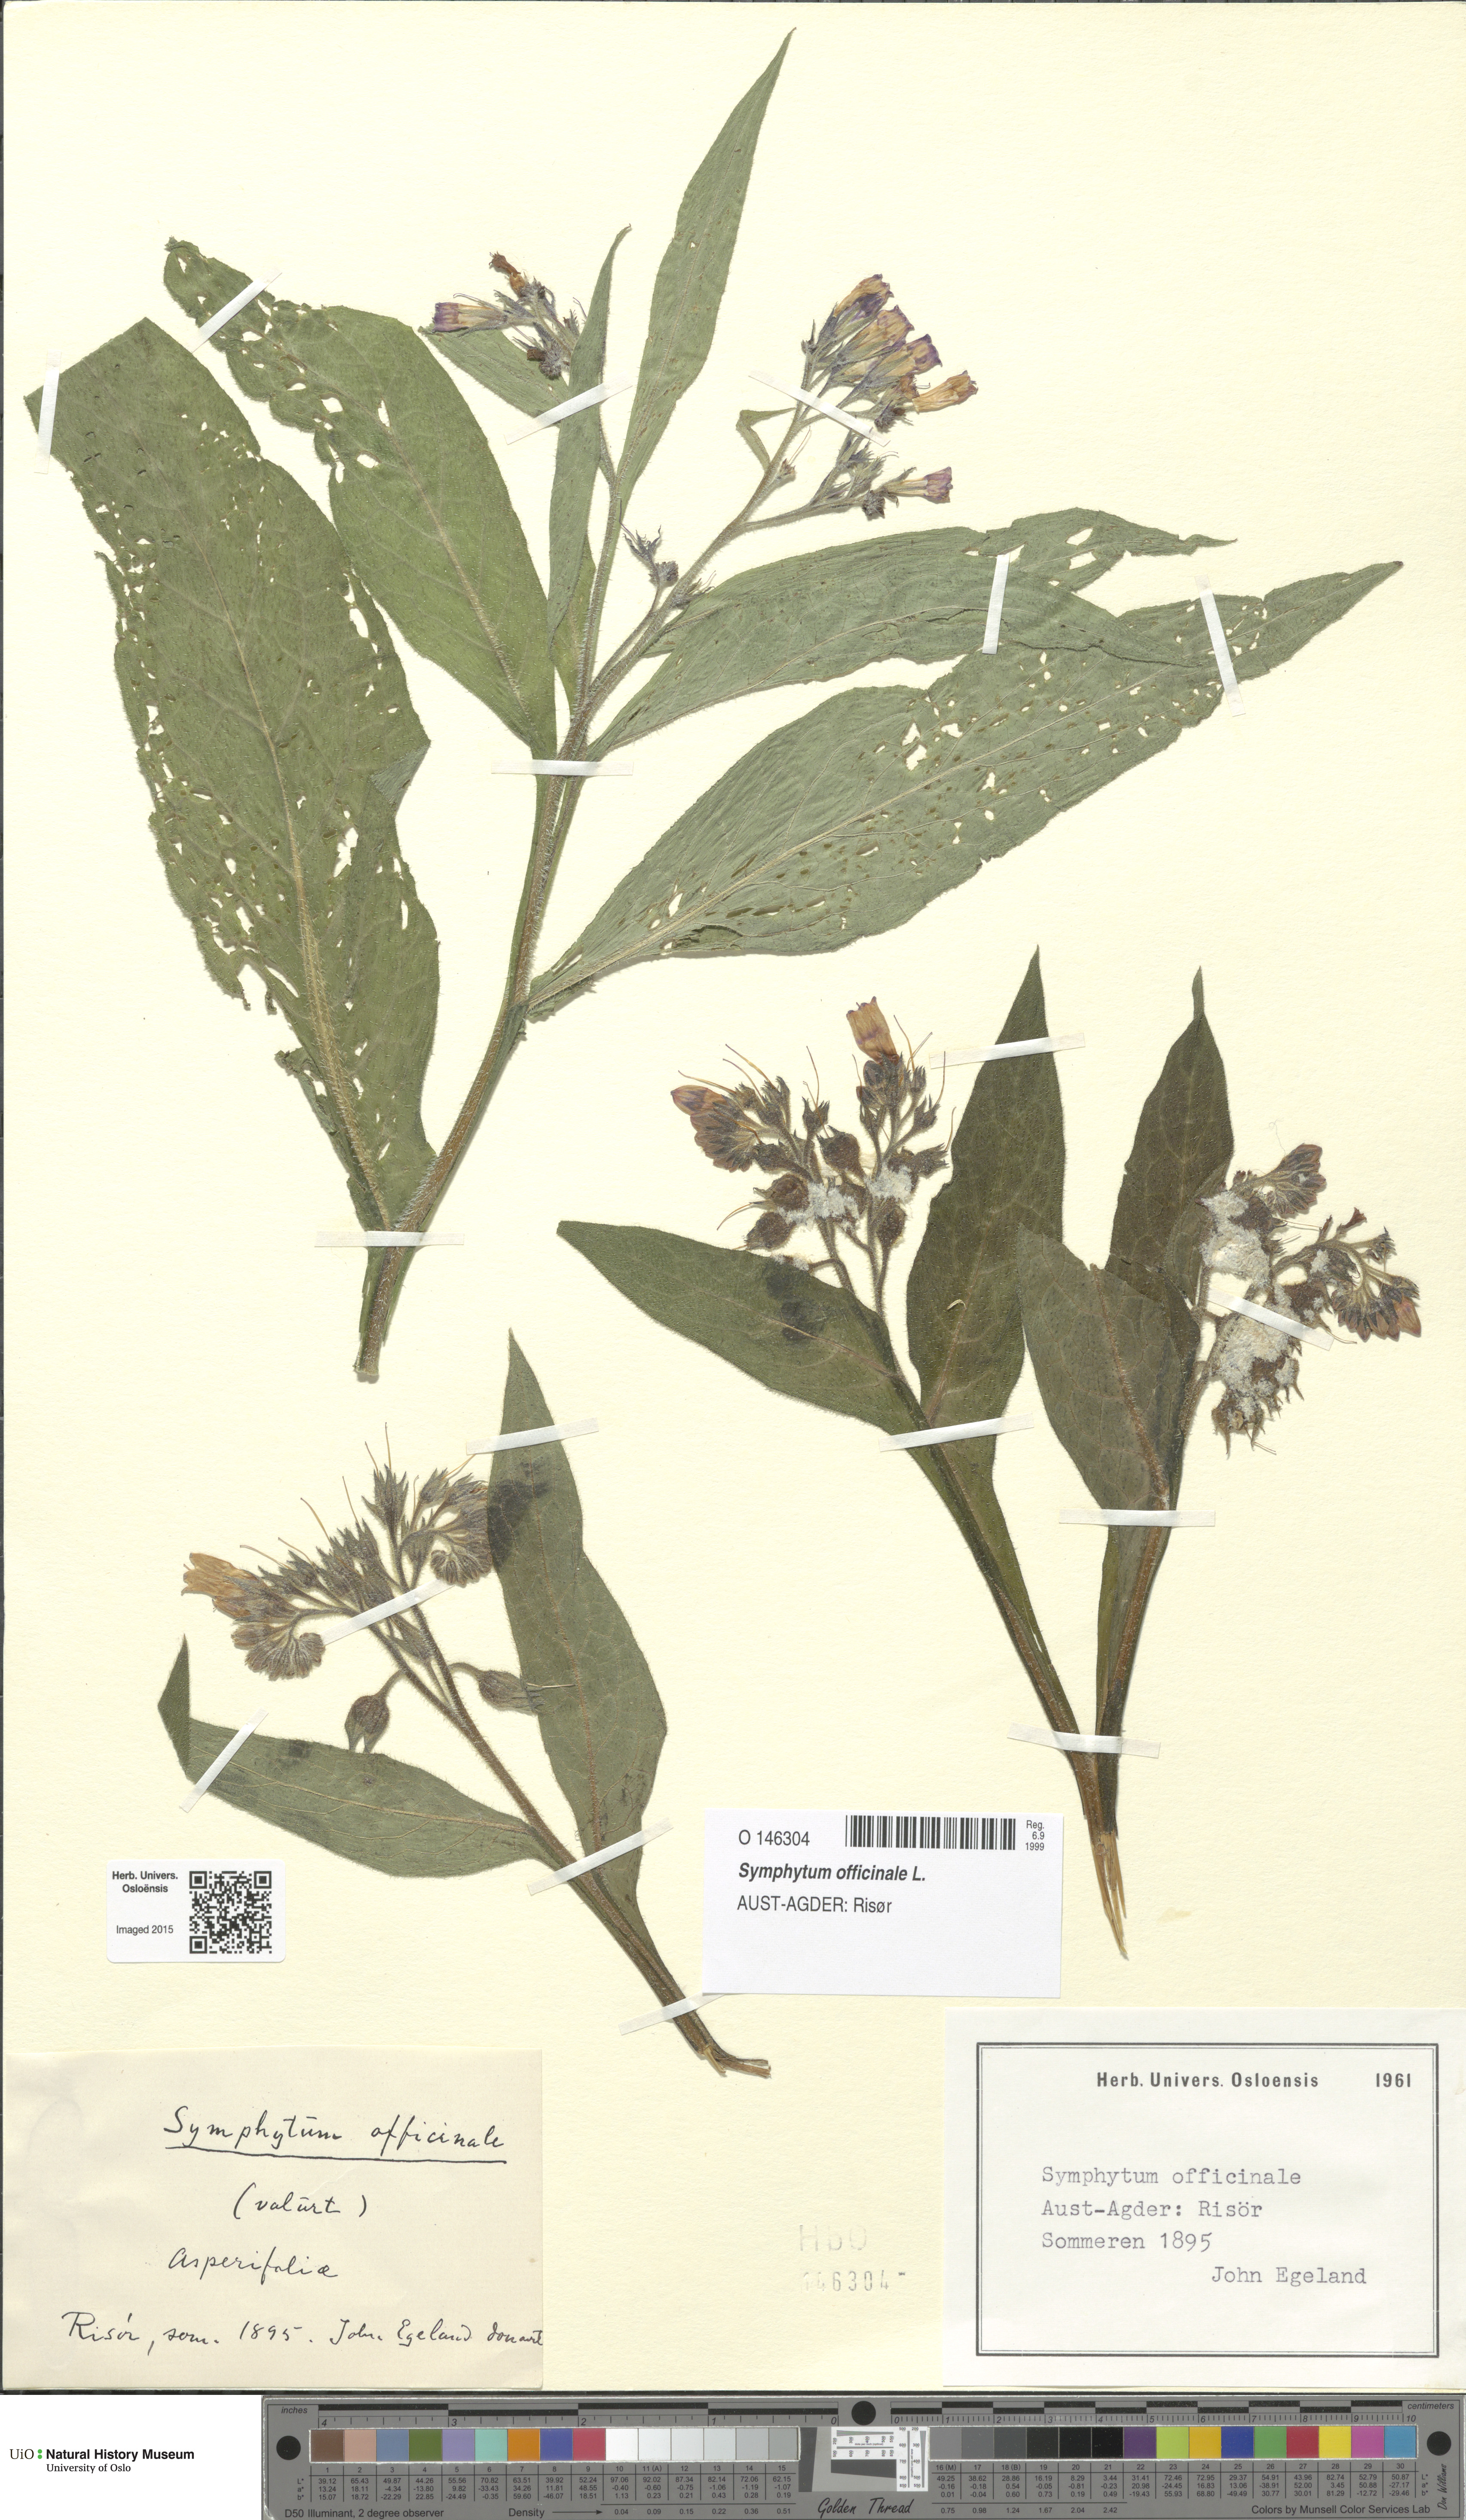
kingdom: Plantae
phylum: Tracheophyta
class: Magnoliopsida
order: Boraginales
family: Boraginaceae
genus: Symphytum
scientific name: Symphytum officinale
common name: Common comfrey
